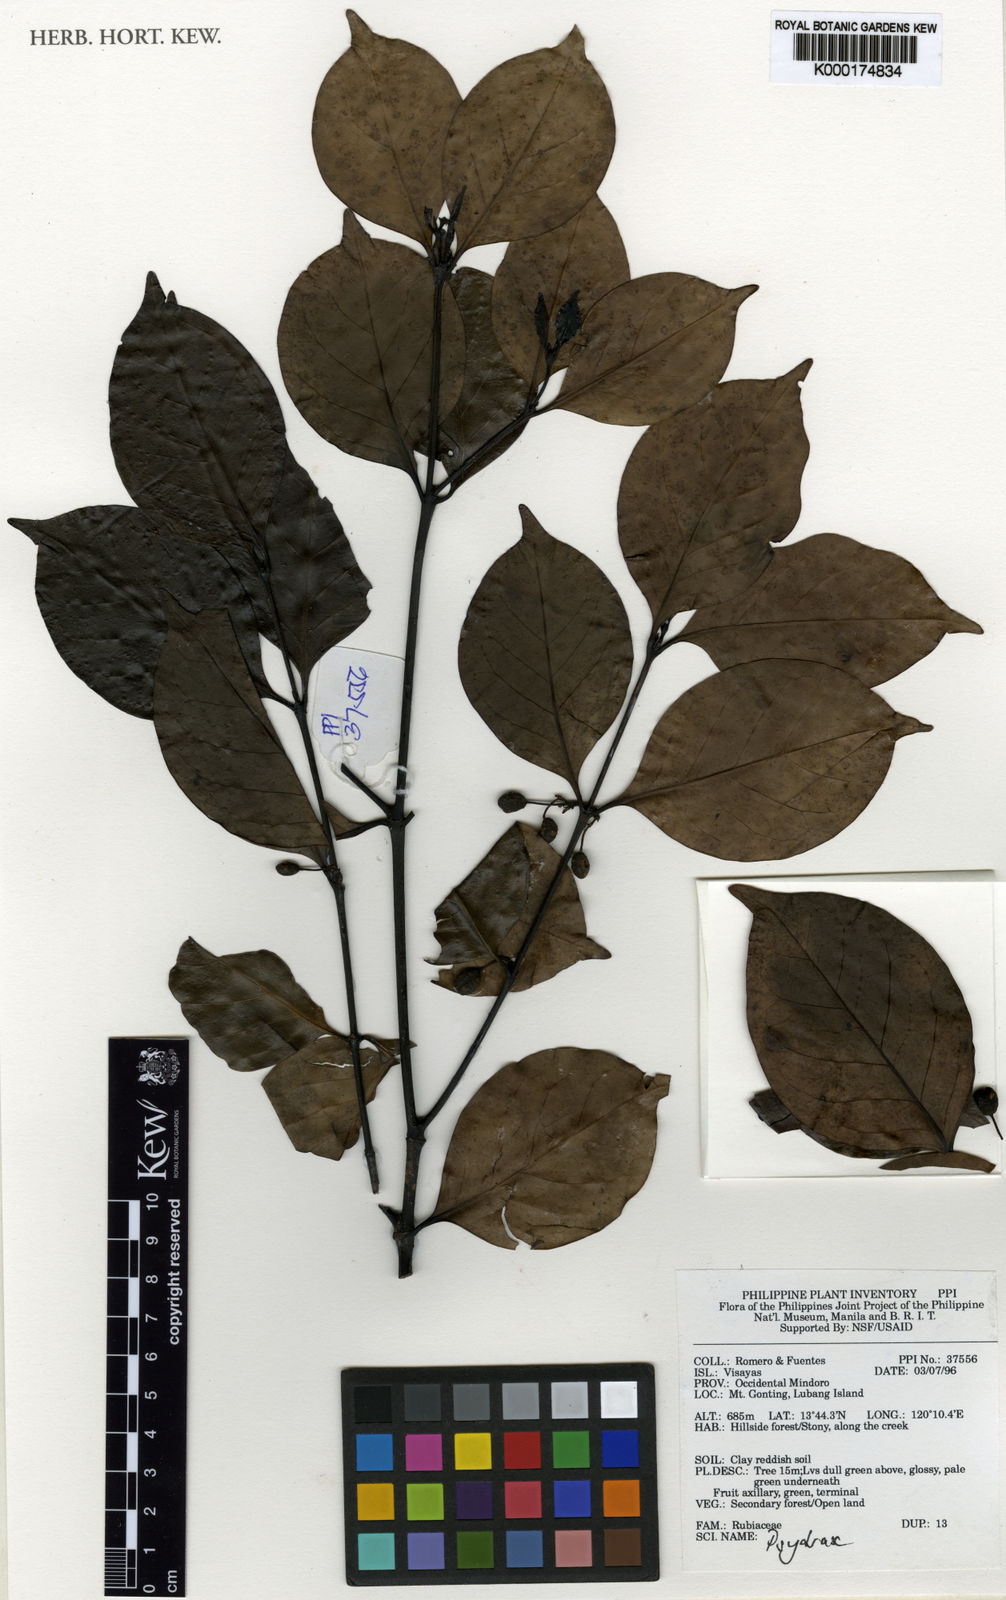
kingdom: Plantae
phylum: Tracheophyta
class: Magnoliopsida
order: Gentianales
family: Rubiaceae
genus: Psydrax
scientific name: Psydrax
